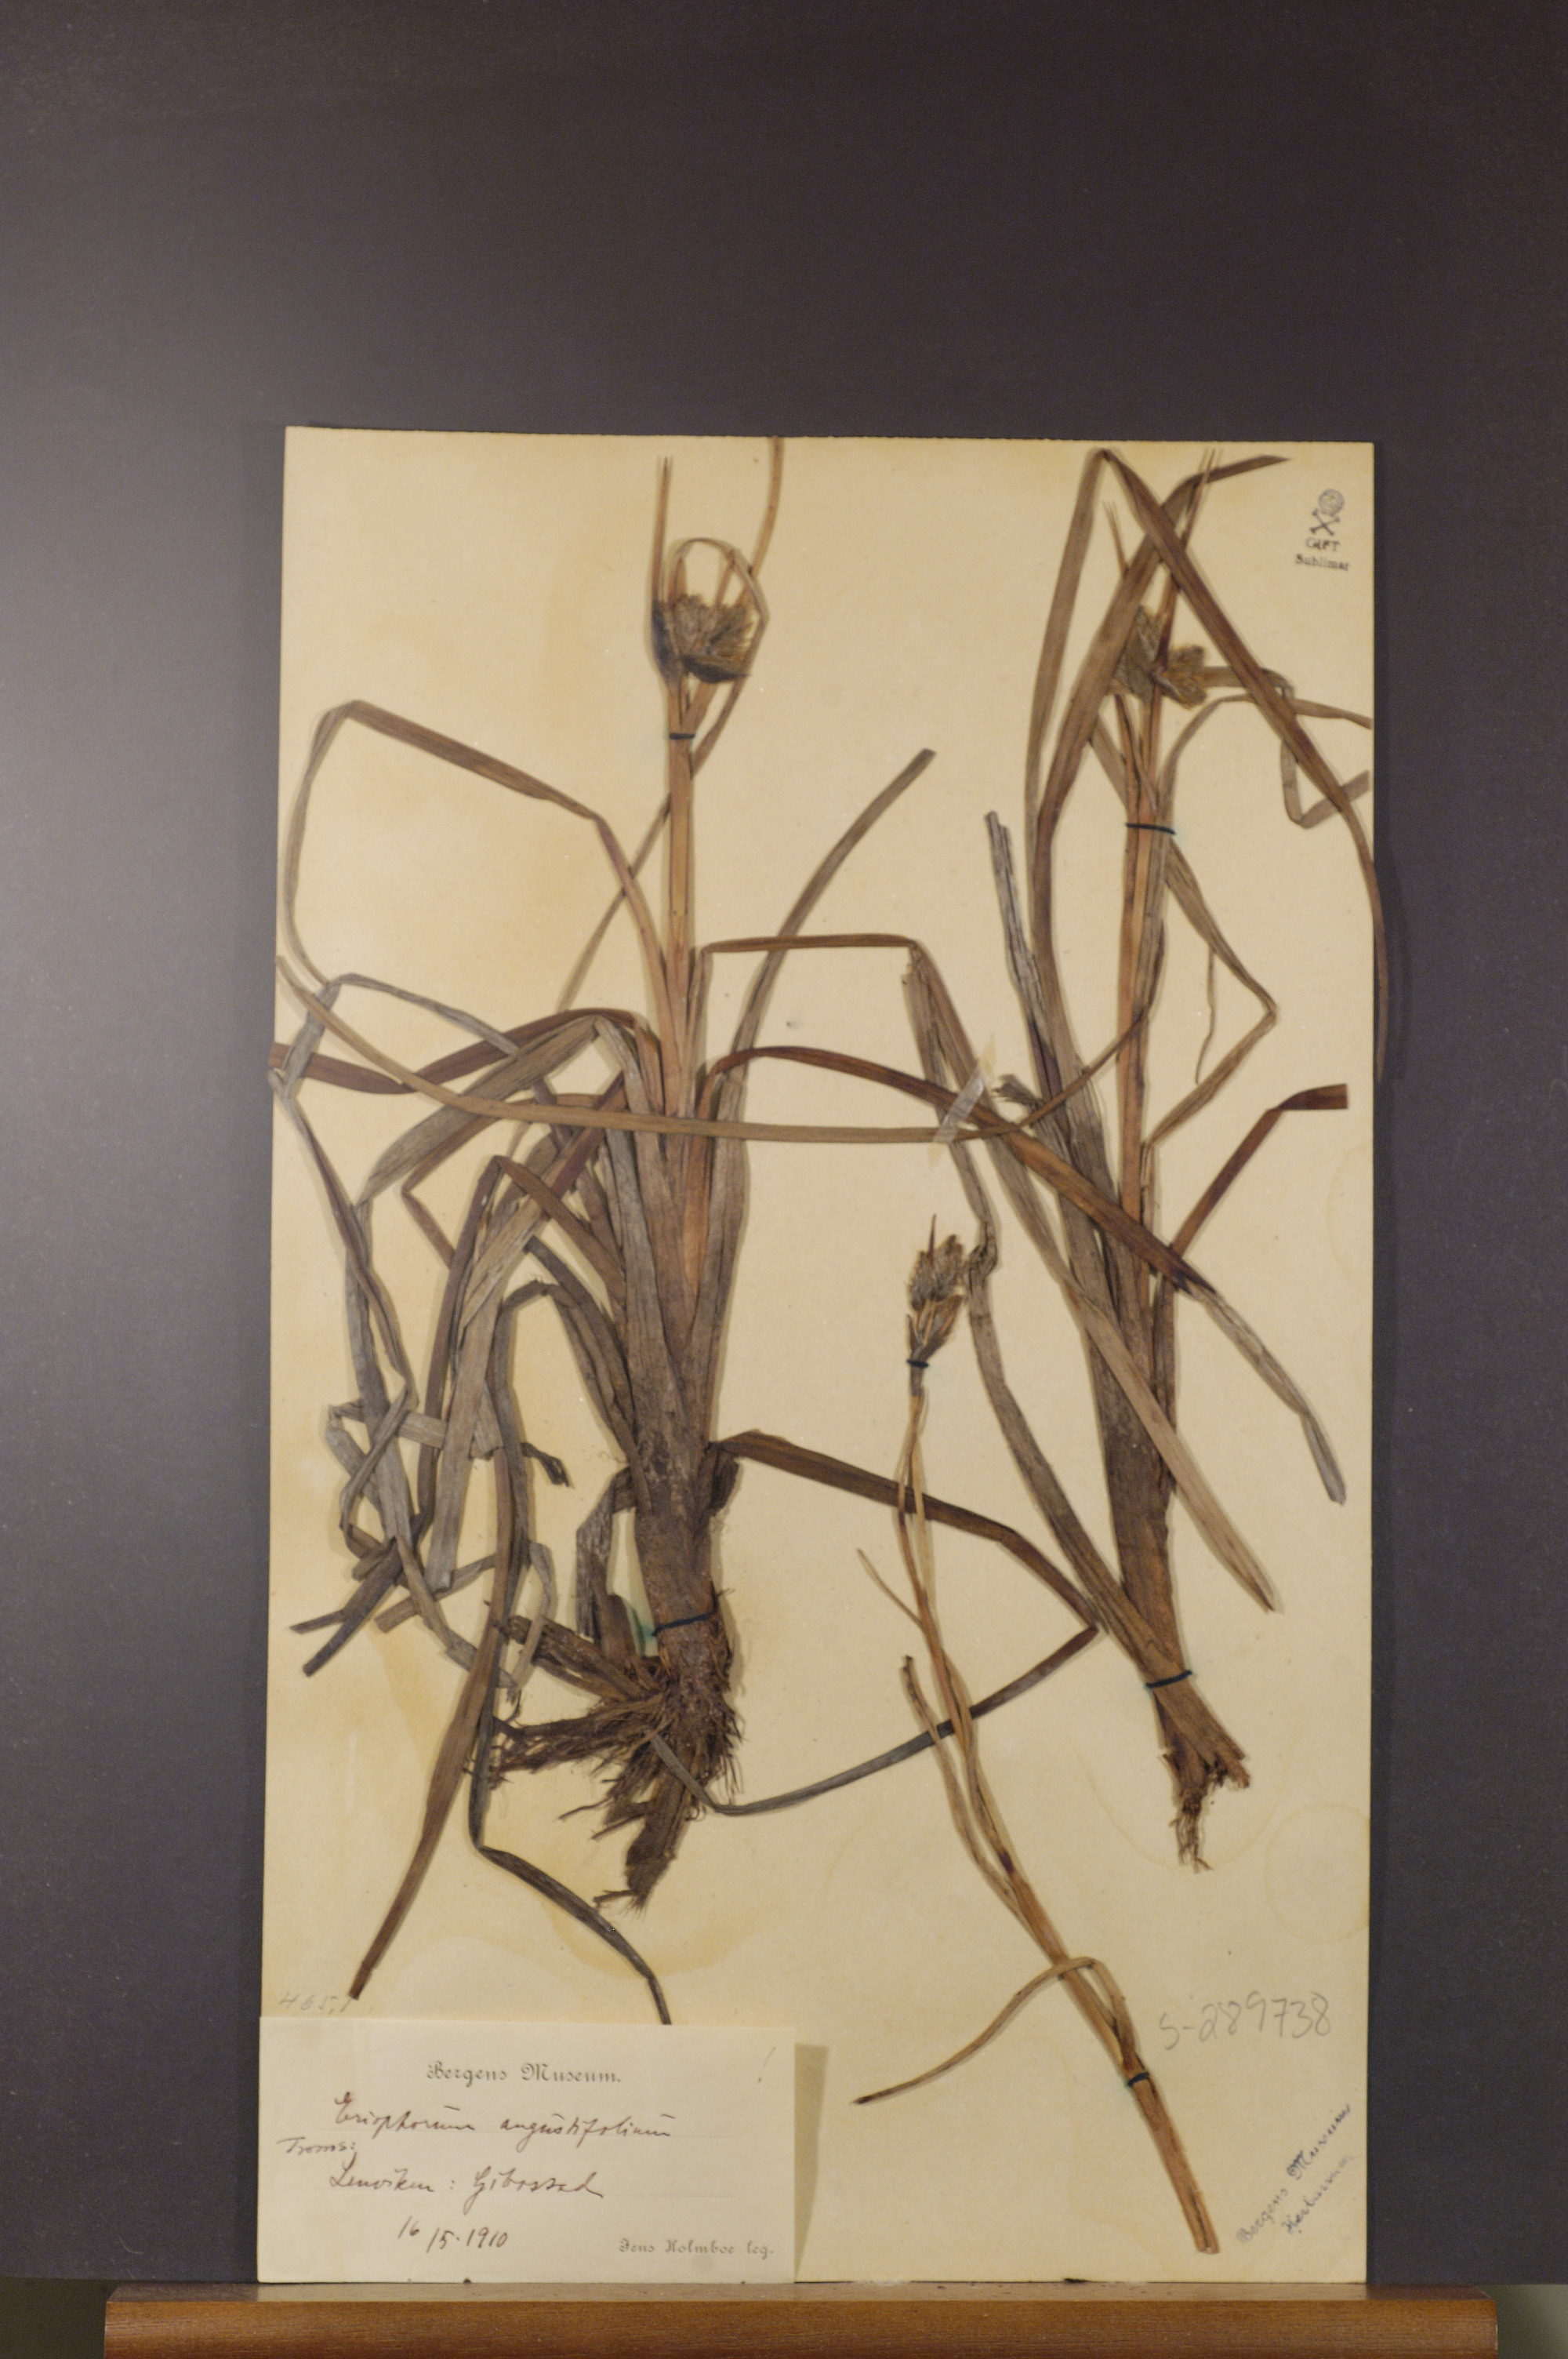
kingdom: Plantae
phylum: Tracheophyta
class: Liliopsida
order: Poales
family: Cyperaceae
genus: Eriophorum
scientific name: Eriophorum angustifolium
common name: Common cottongrass
